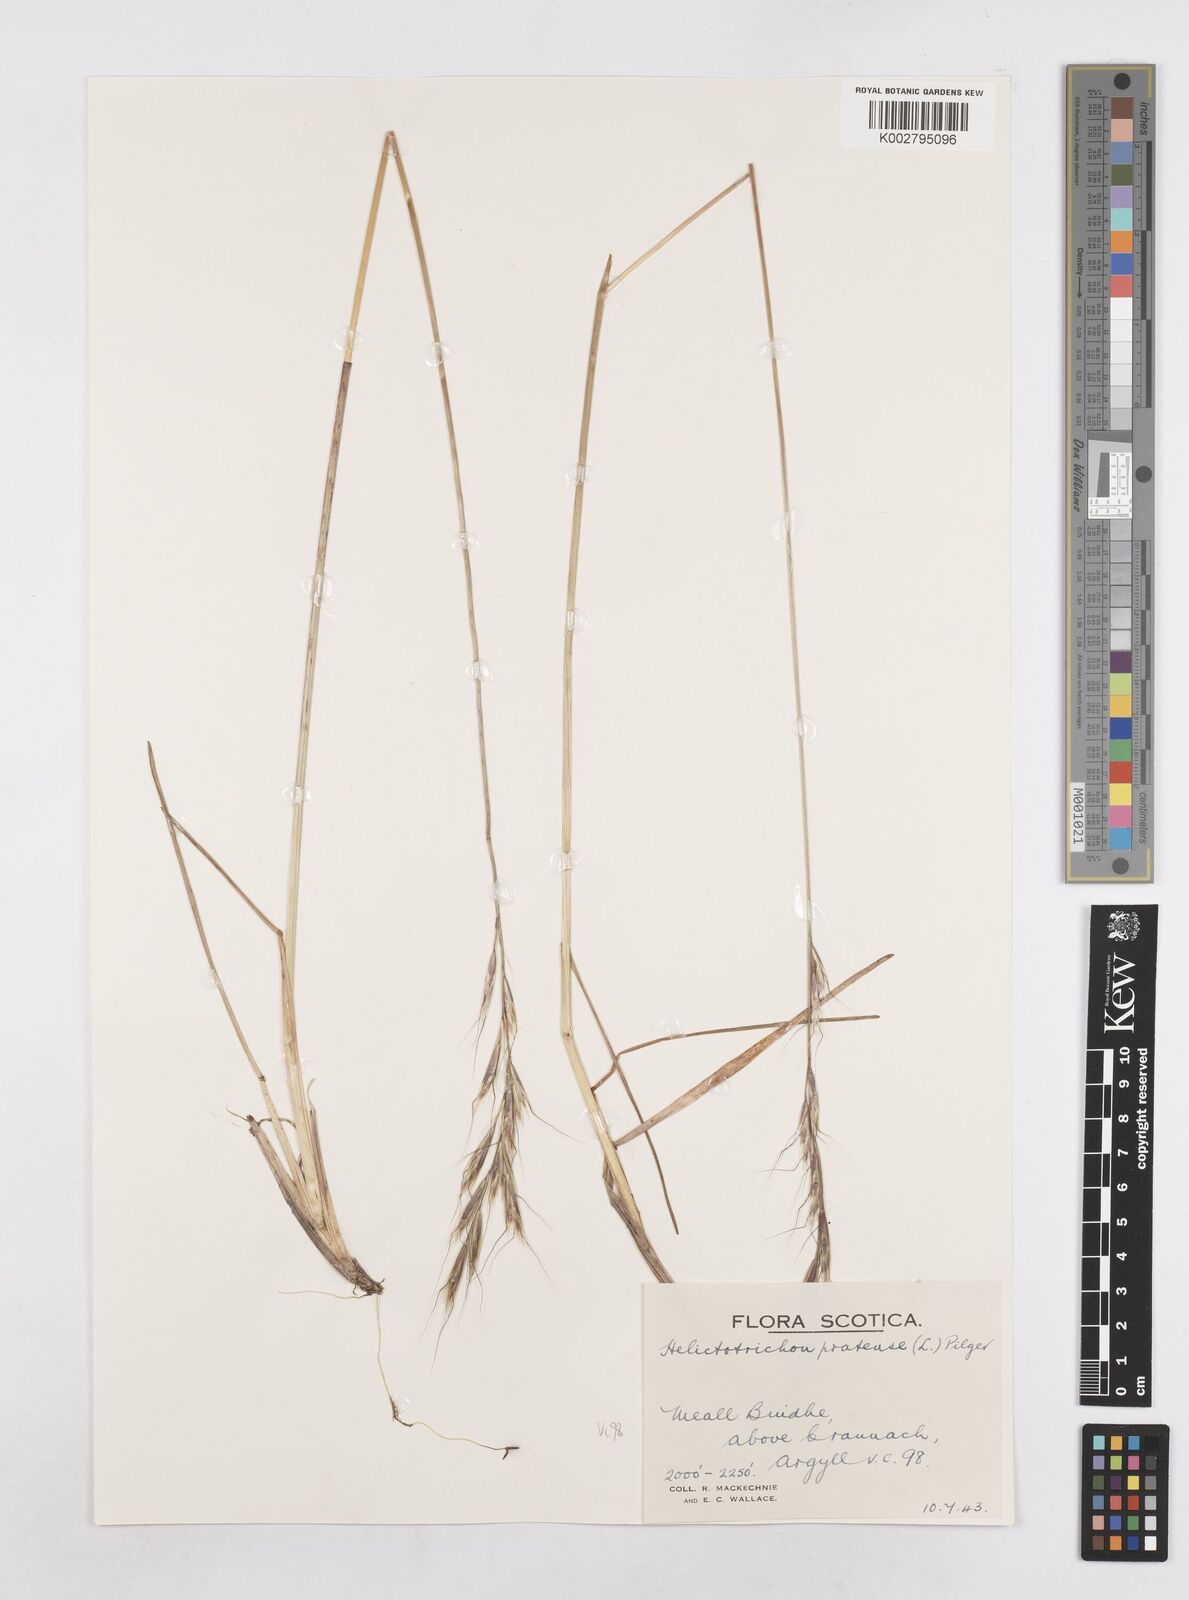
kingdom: Plantae
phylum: Tracheophyta
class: Liliopsida
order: Poales
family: Poaceae
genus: Helictochloa
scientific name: Helictochloa pratensis
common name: Meadow oat grass
